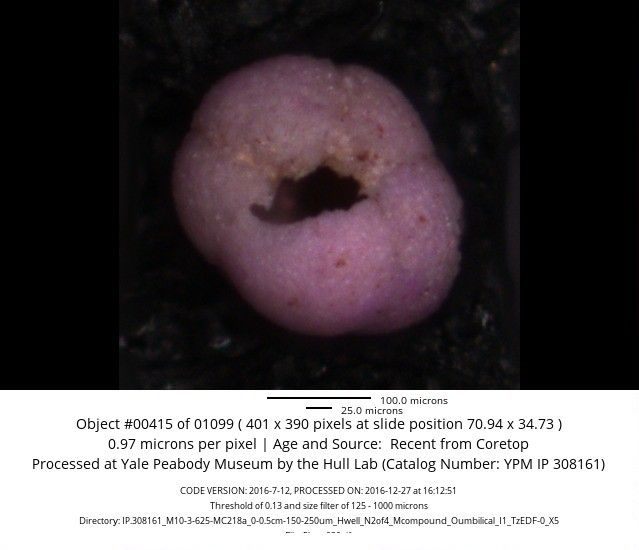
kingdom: Chromista
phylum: Foraminifera
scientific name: Foraminifera
